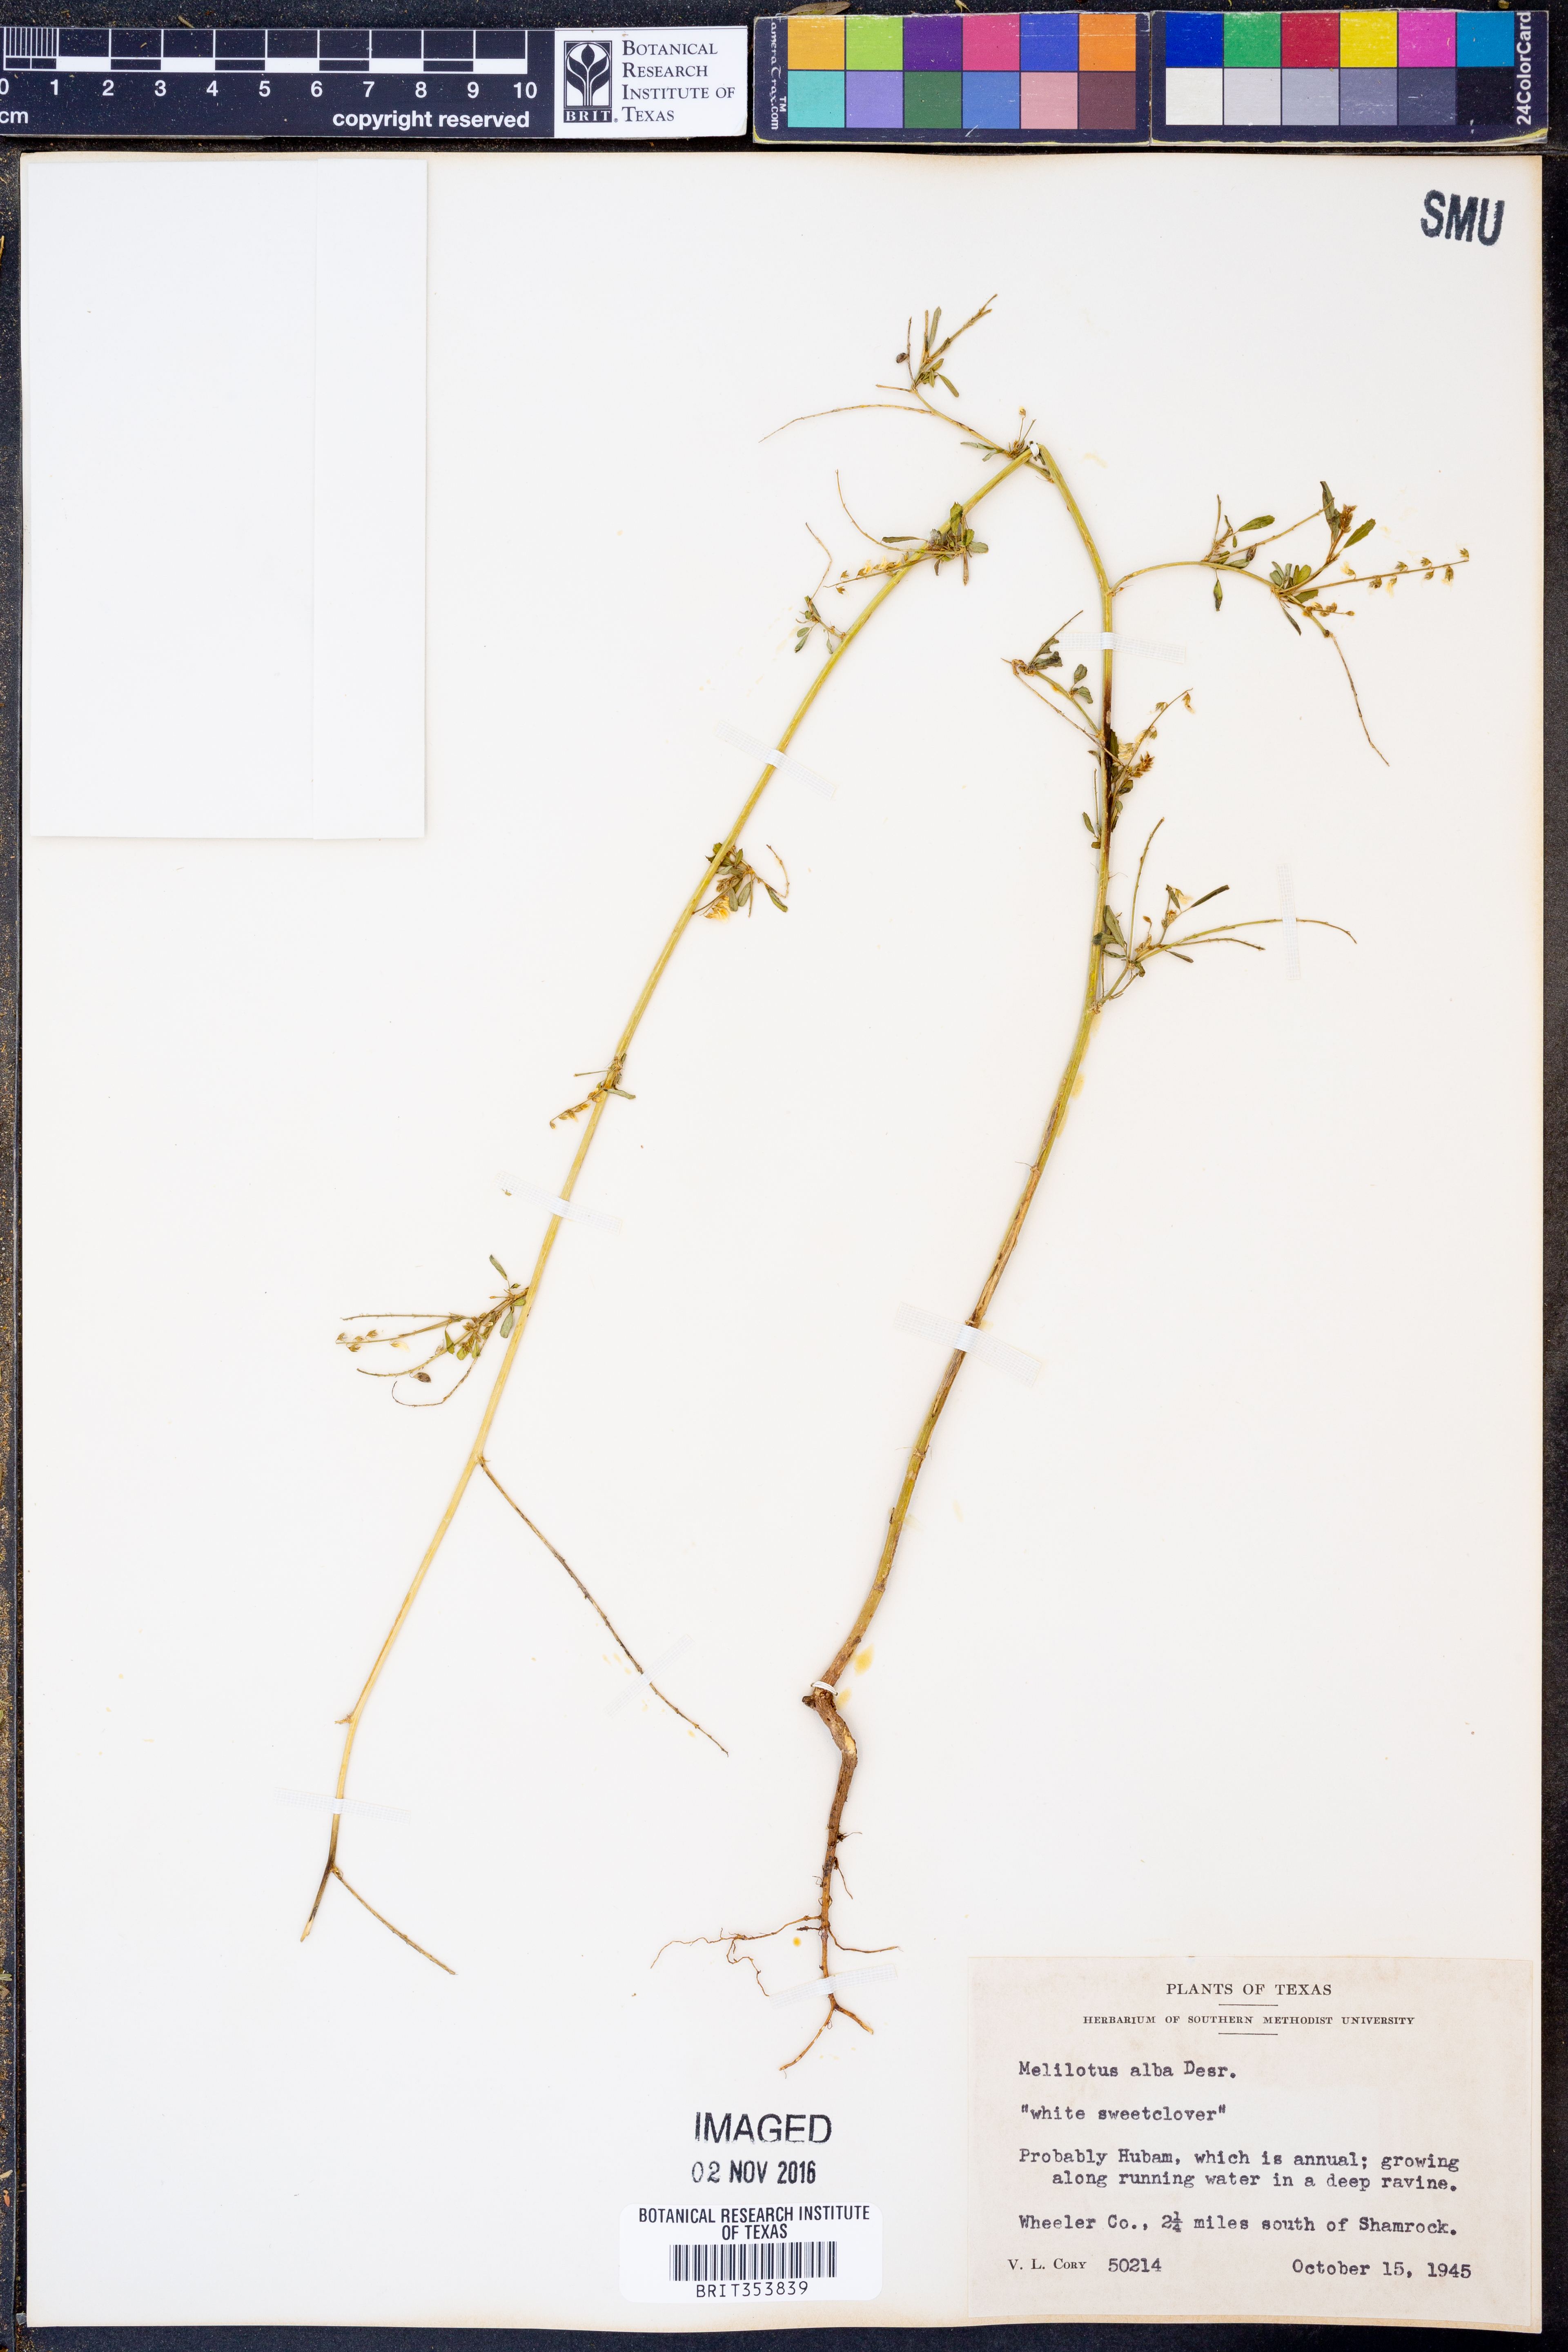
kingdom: Plantae
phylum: Tracheophyta
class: Magnoliopsida
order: Fabales
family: Fabaceae
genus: Melilotus
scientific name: Melilotus albus
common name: White melilot
